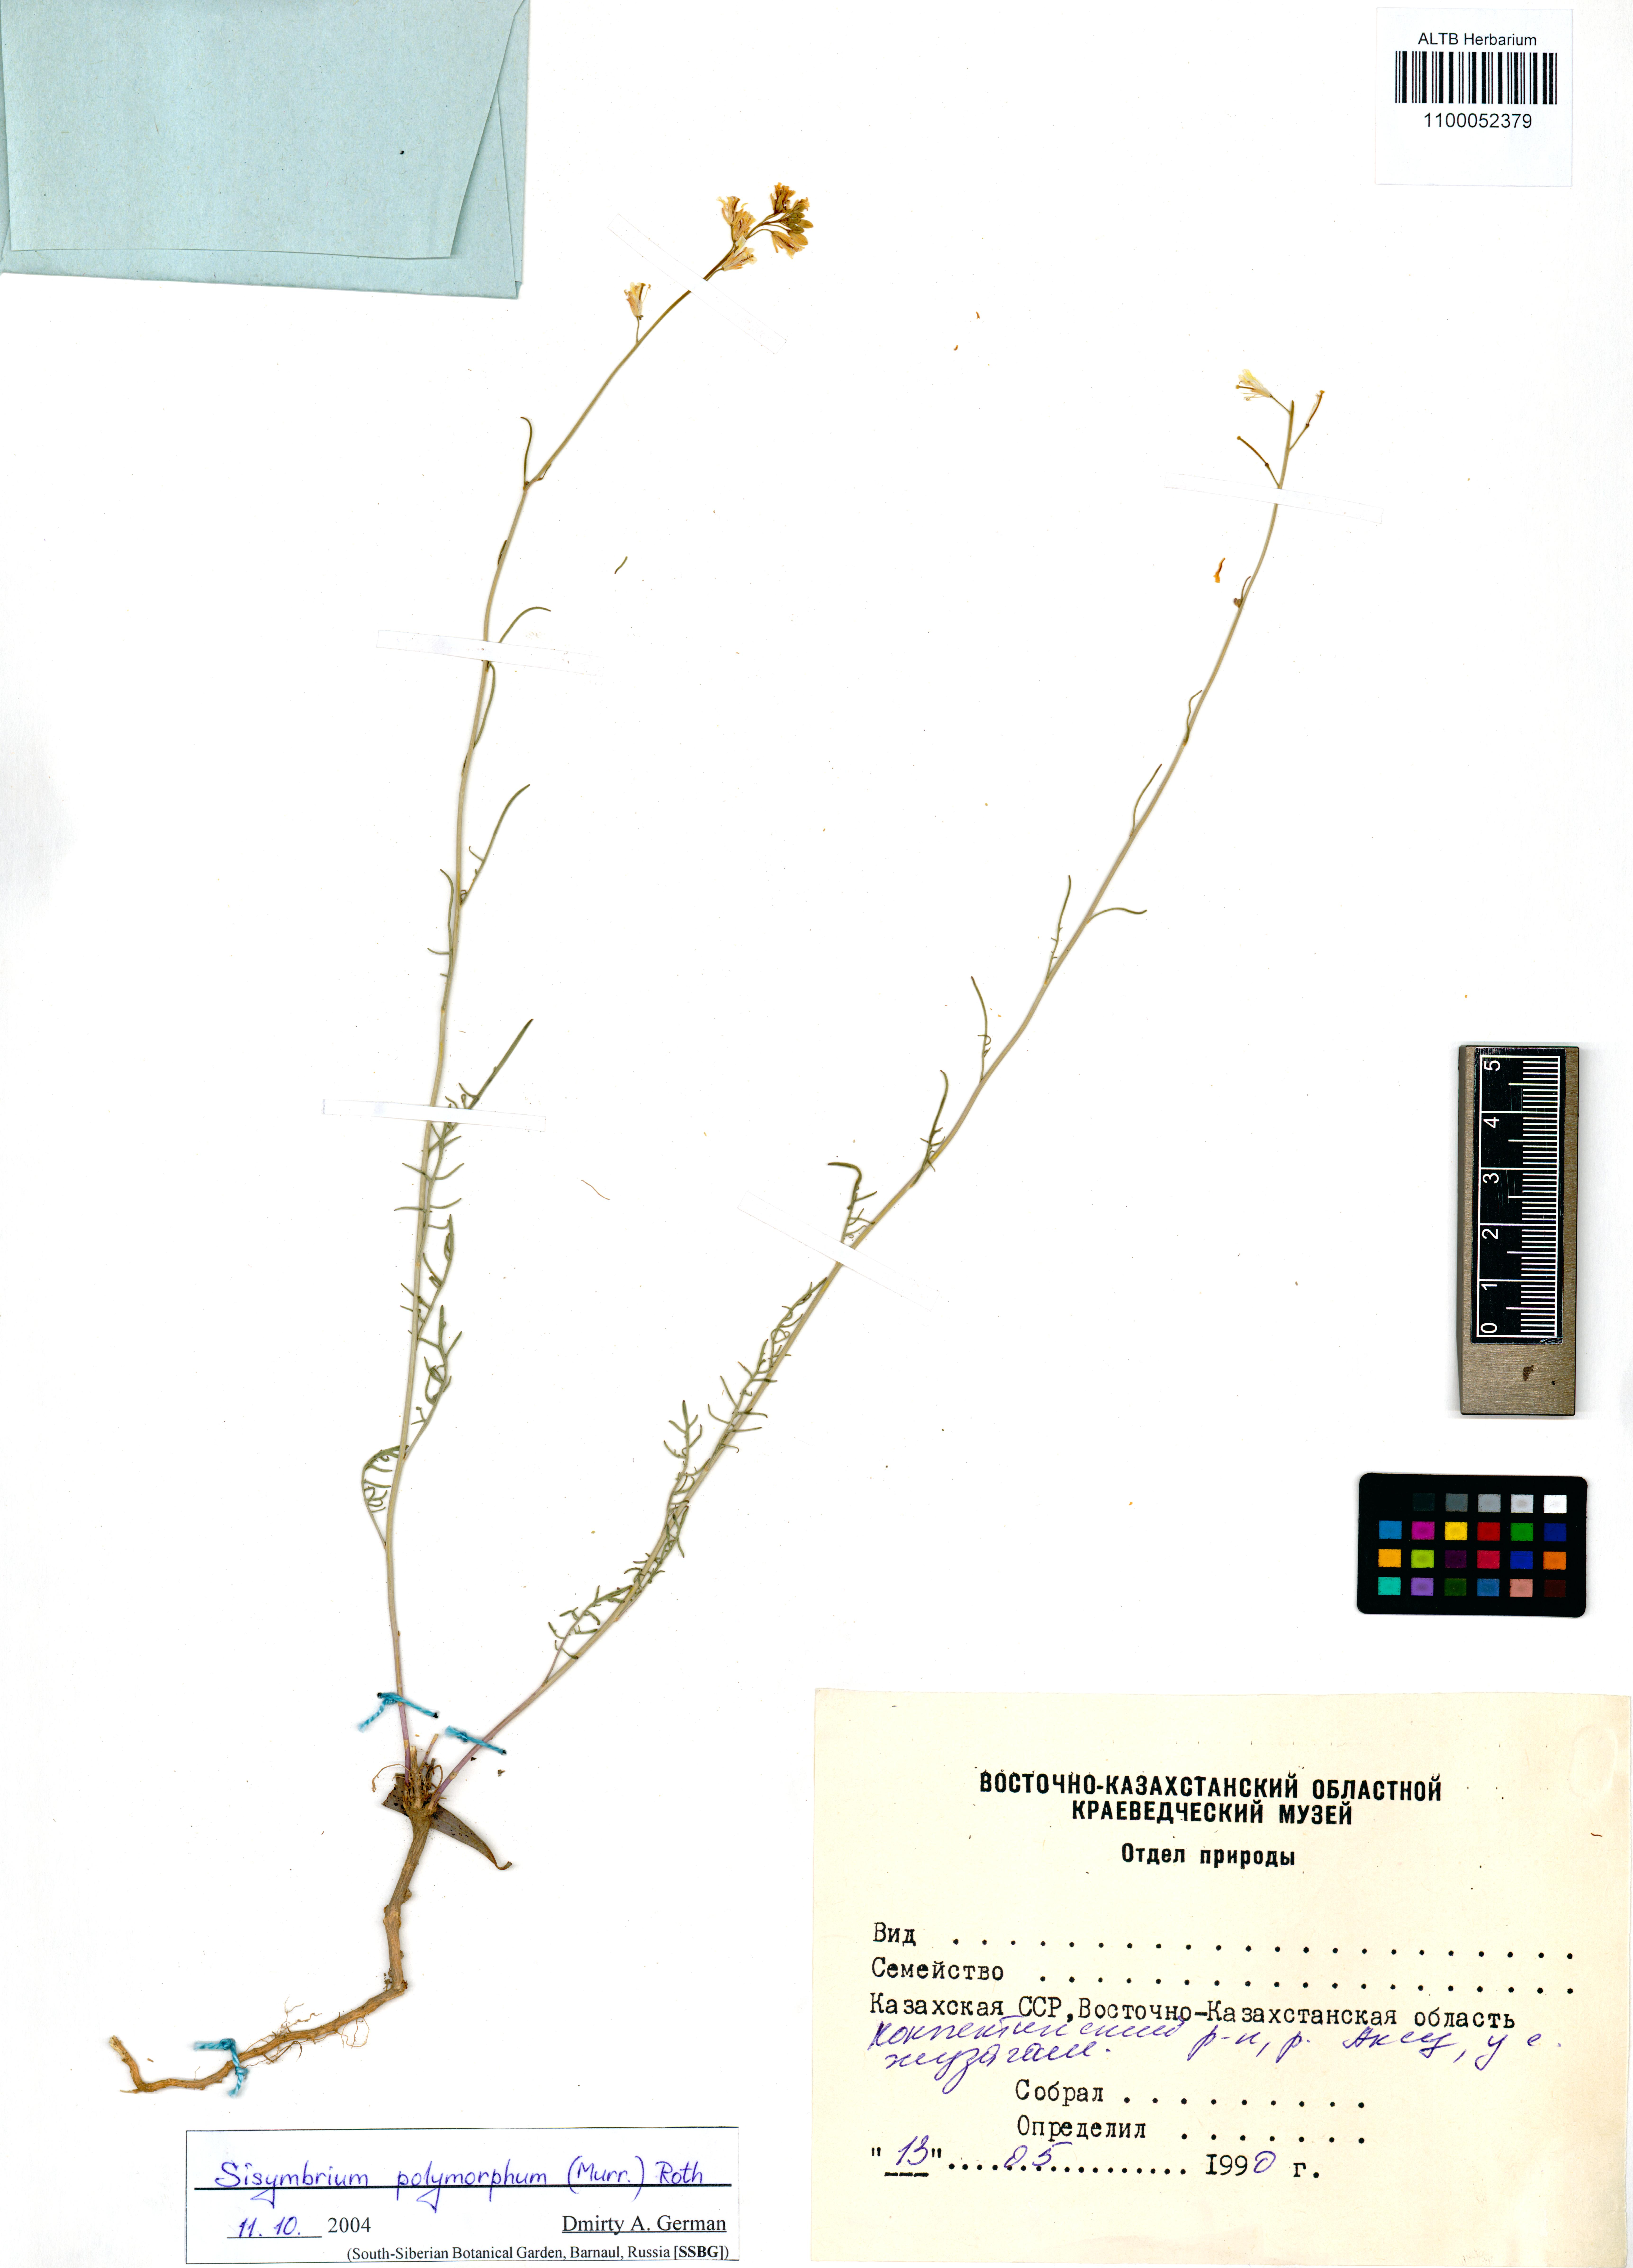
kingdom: Plantae
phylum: Tracheophyta
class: Magnoliopsida
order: Brassicales
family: Brassicaceae
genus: Sisymbrium
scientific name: Sisymbrium polymorphum
